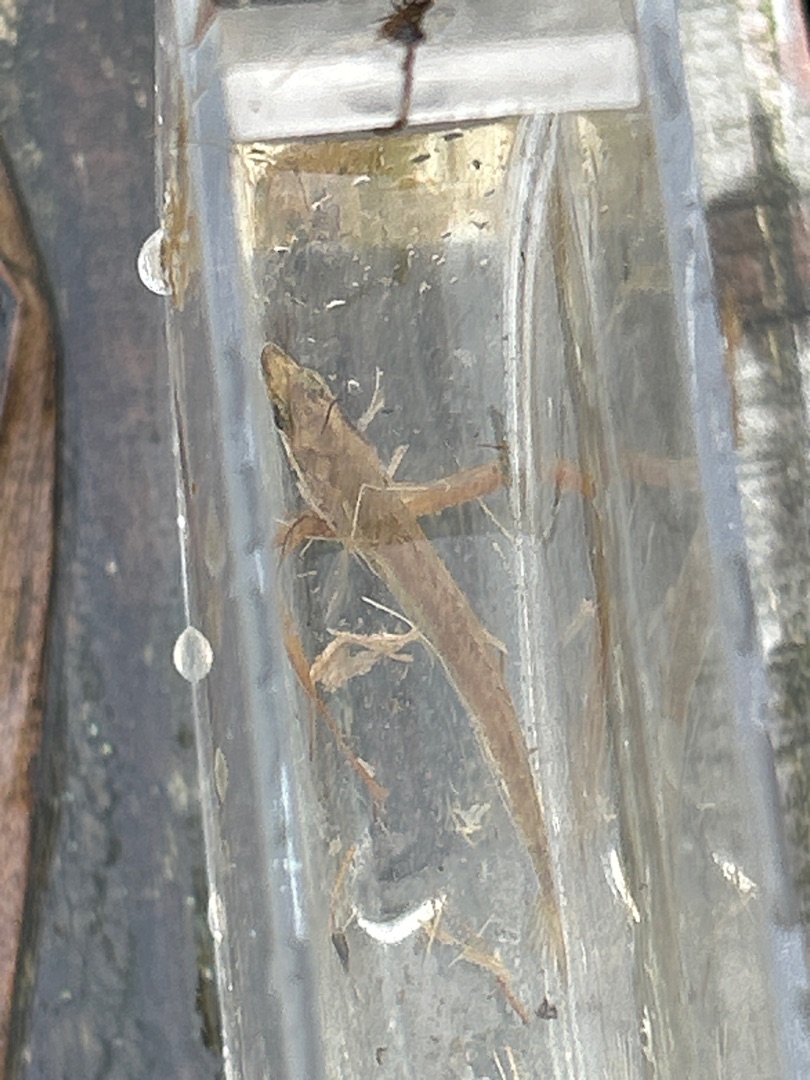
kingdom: Animalia
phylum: Chordata
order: Gasterosteiformes
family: Gasterosteidae
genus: Pungitius
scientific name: Pungitius pungitius
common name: Nipigget hundestejle
